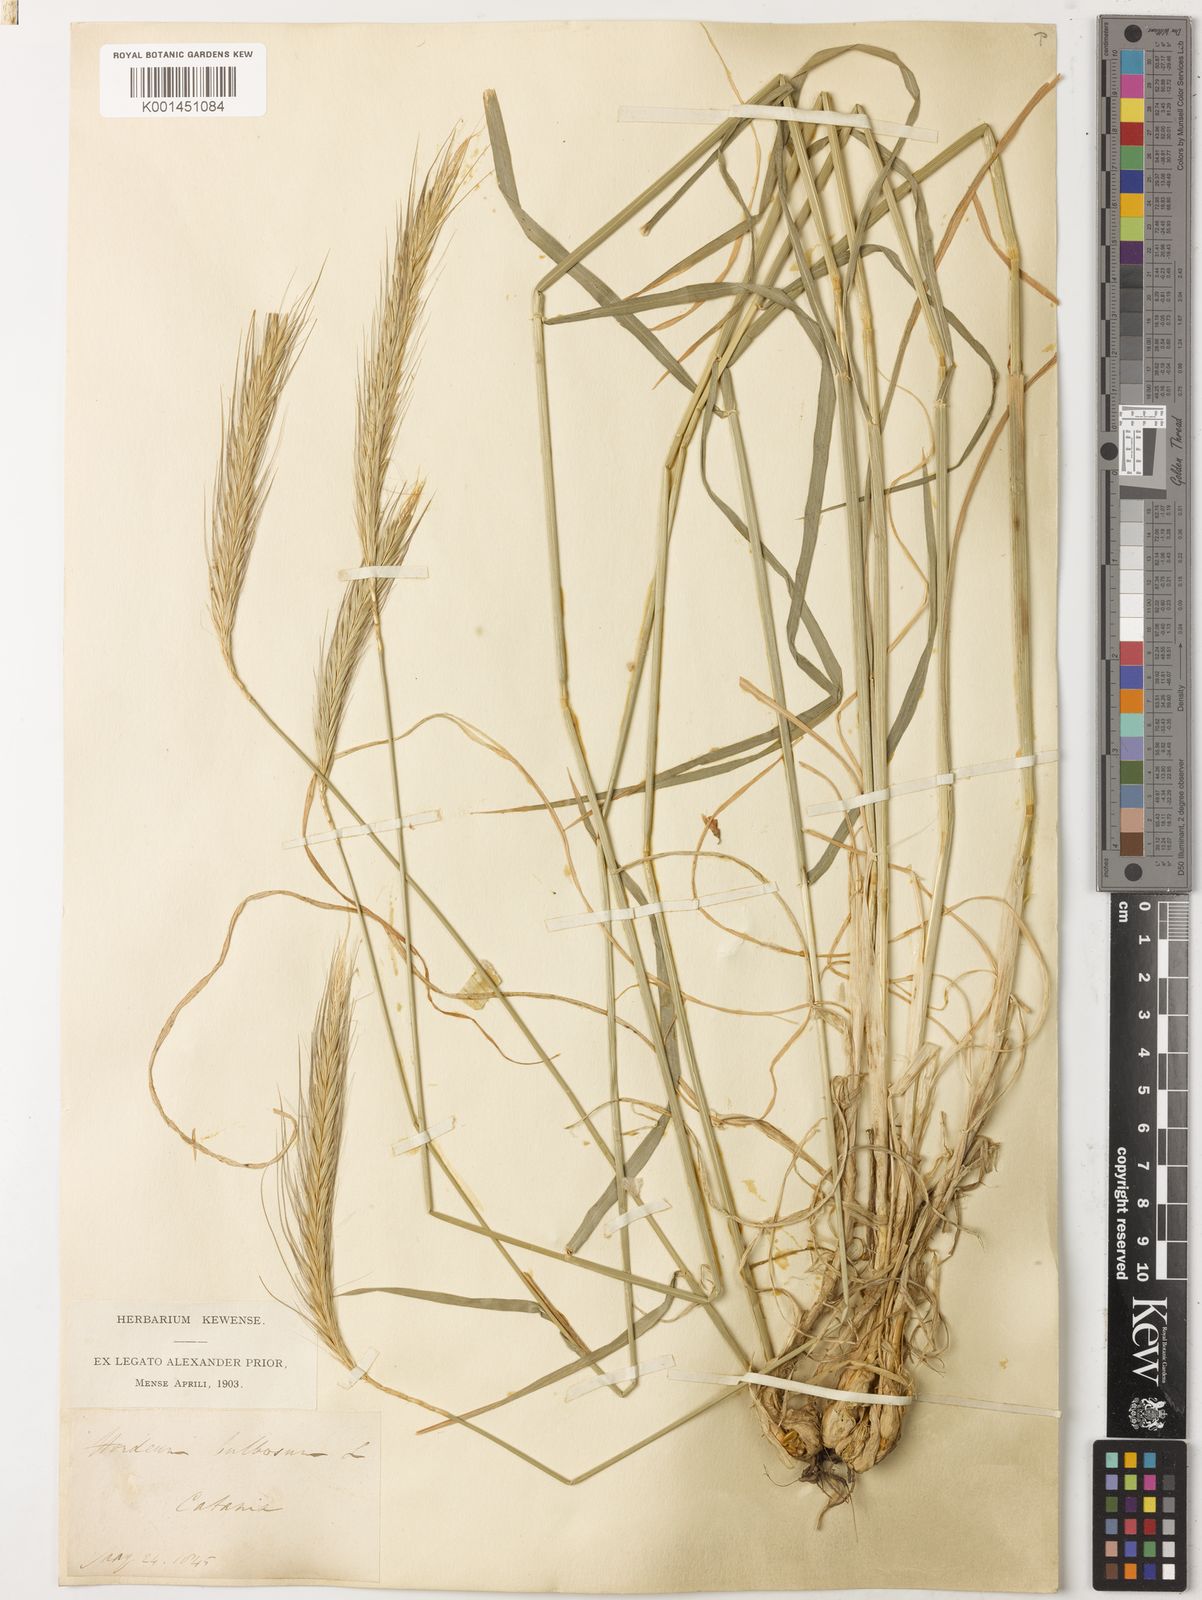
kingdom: Plantae
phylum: Tracheophyta
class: Liliopsida
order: Poales
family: Poaceae
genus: Hordeum
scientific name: Hordeum bulbosum
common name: Bulbous barley
